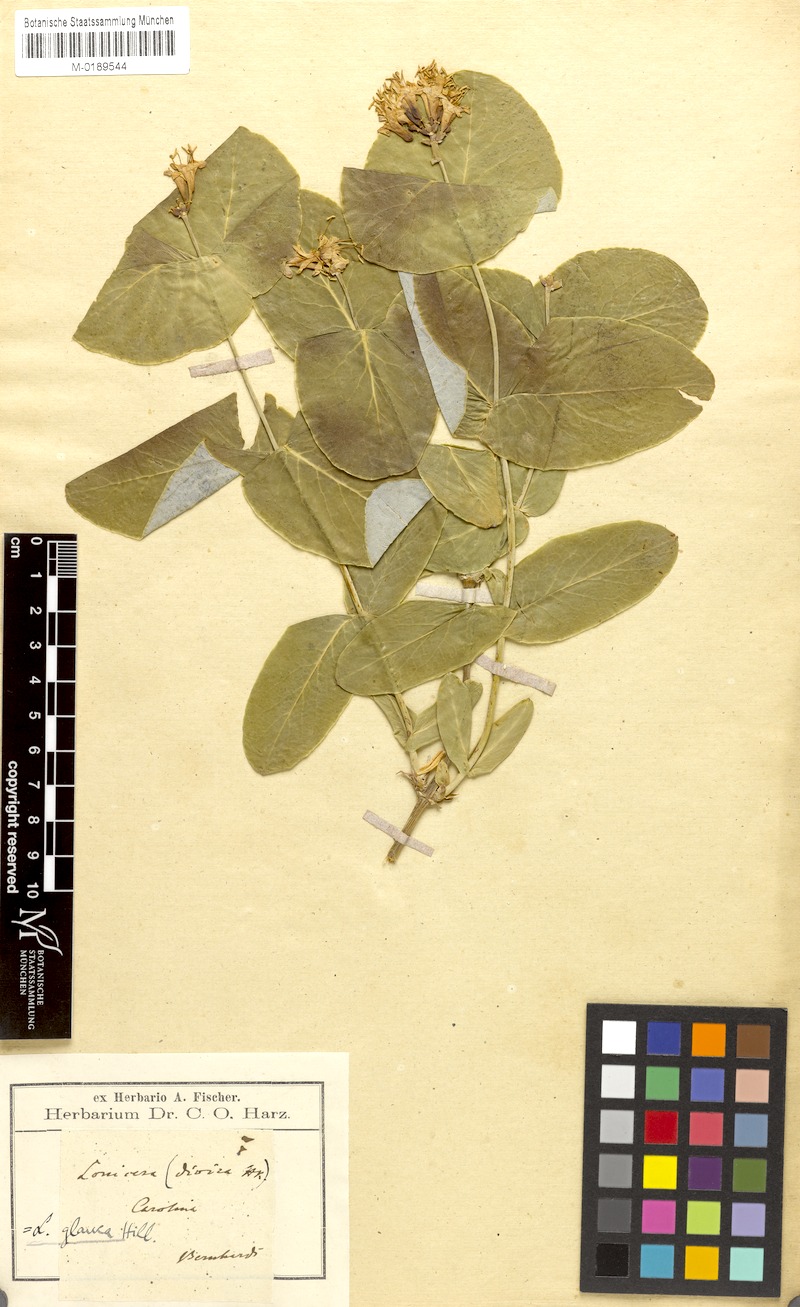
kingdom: Plantae
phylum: Tracheophyta
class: Magnoliopsida
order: Dipsacales
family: Caprifoliaceae
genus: Lonicera
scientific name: Lonicera dioica
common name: Limber honeysuckle
